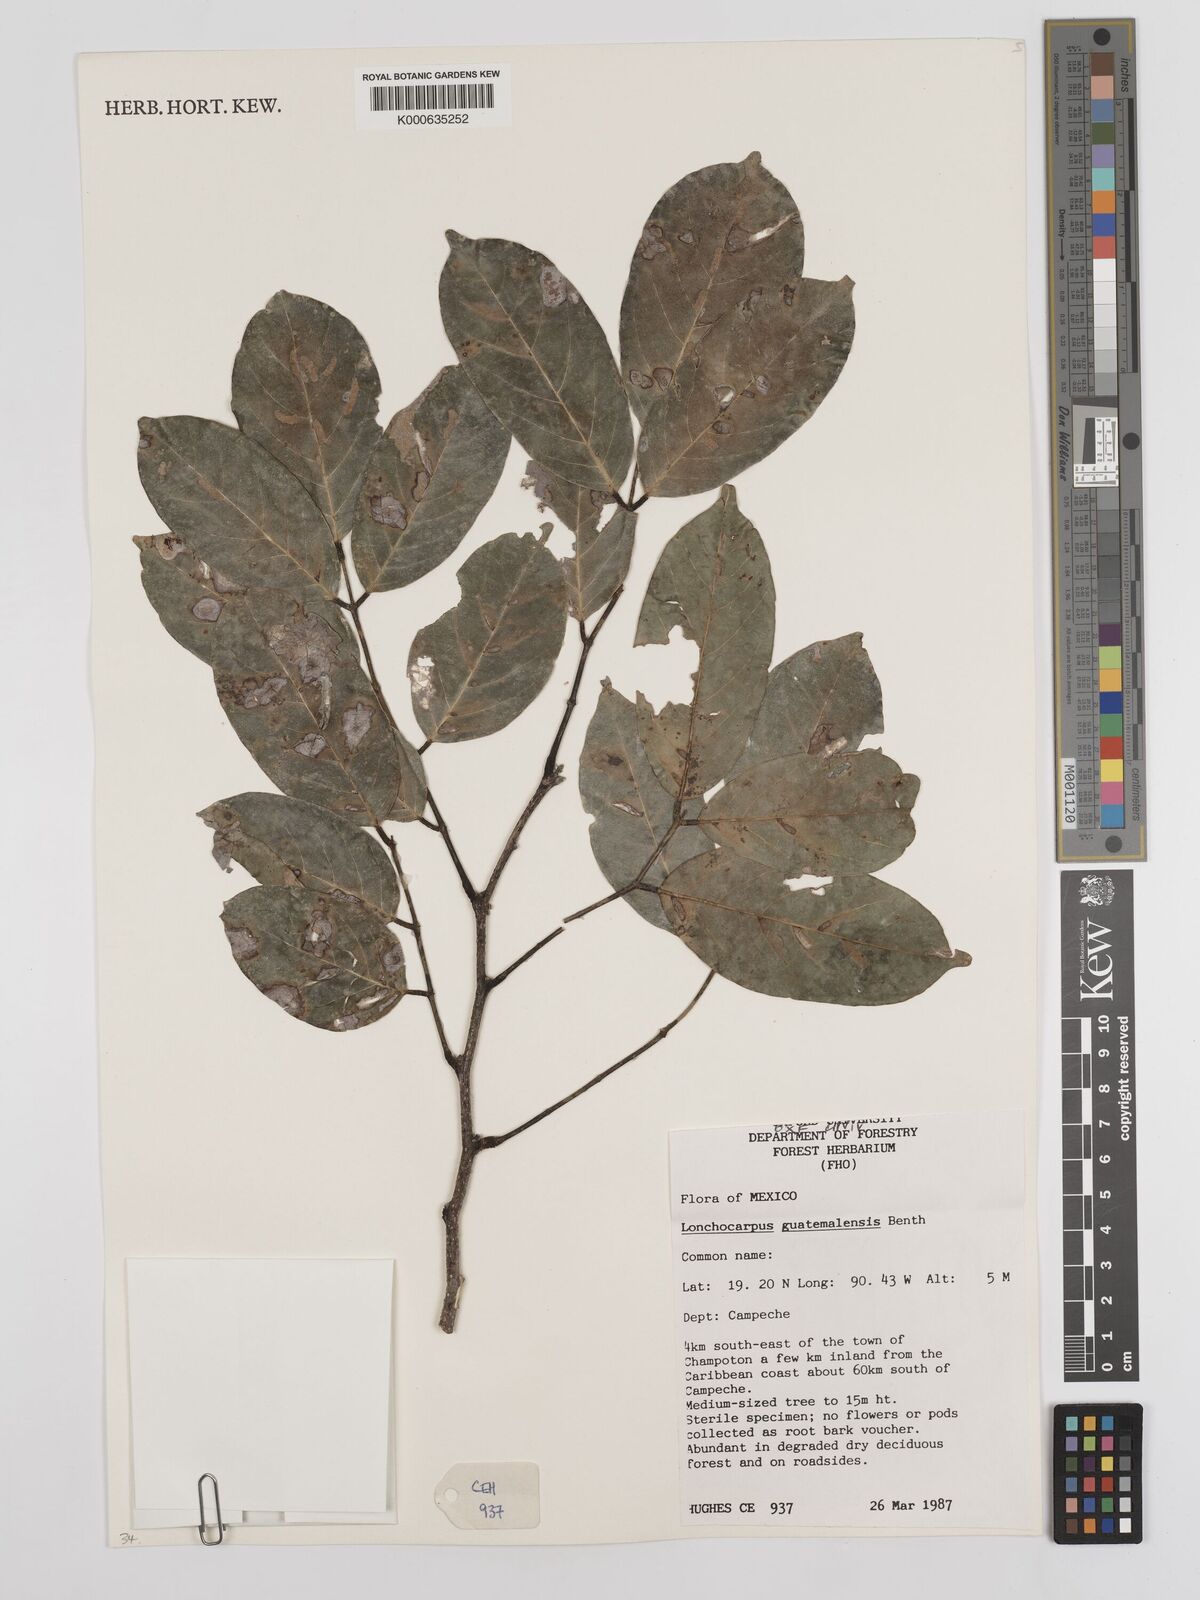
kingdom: Plantae
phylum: Tracheophyta
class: Magnoliopsida
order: Fabales
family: Fabaceae
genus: Lonchocarpus
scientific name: Lonchocarpus guatemalensis
